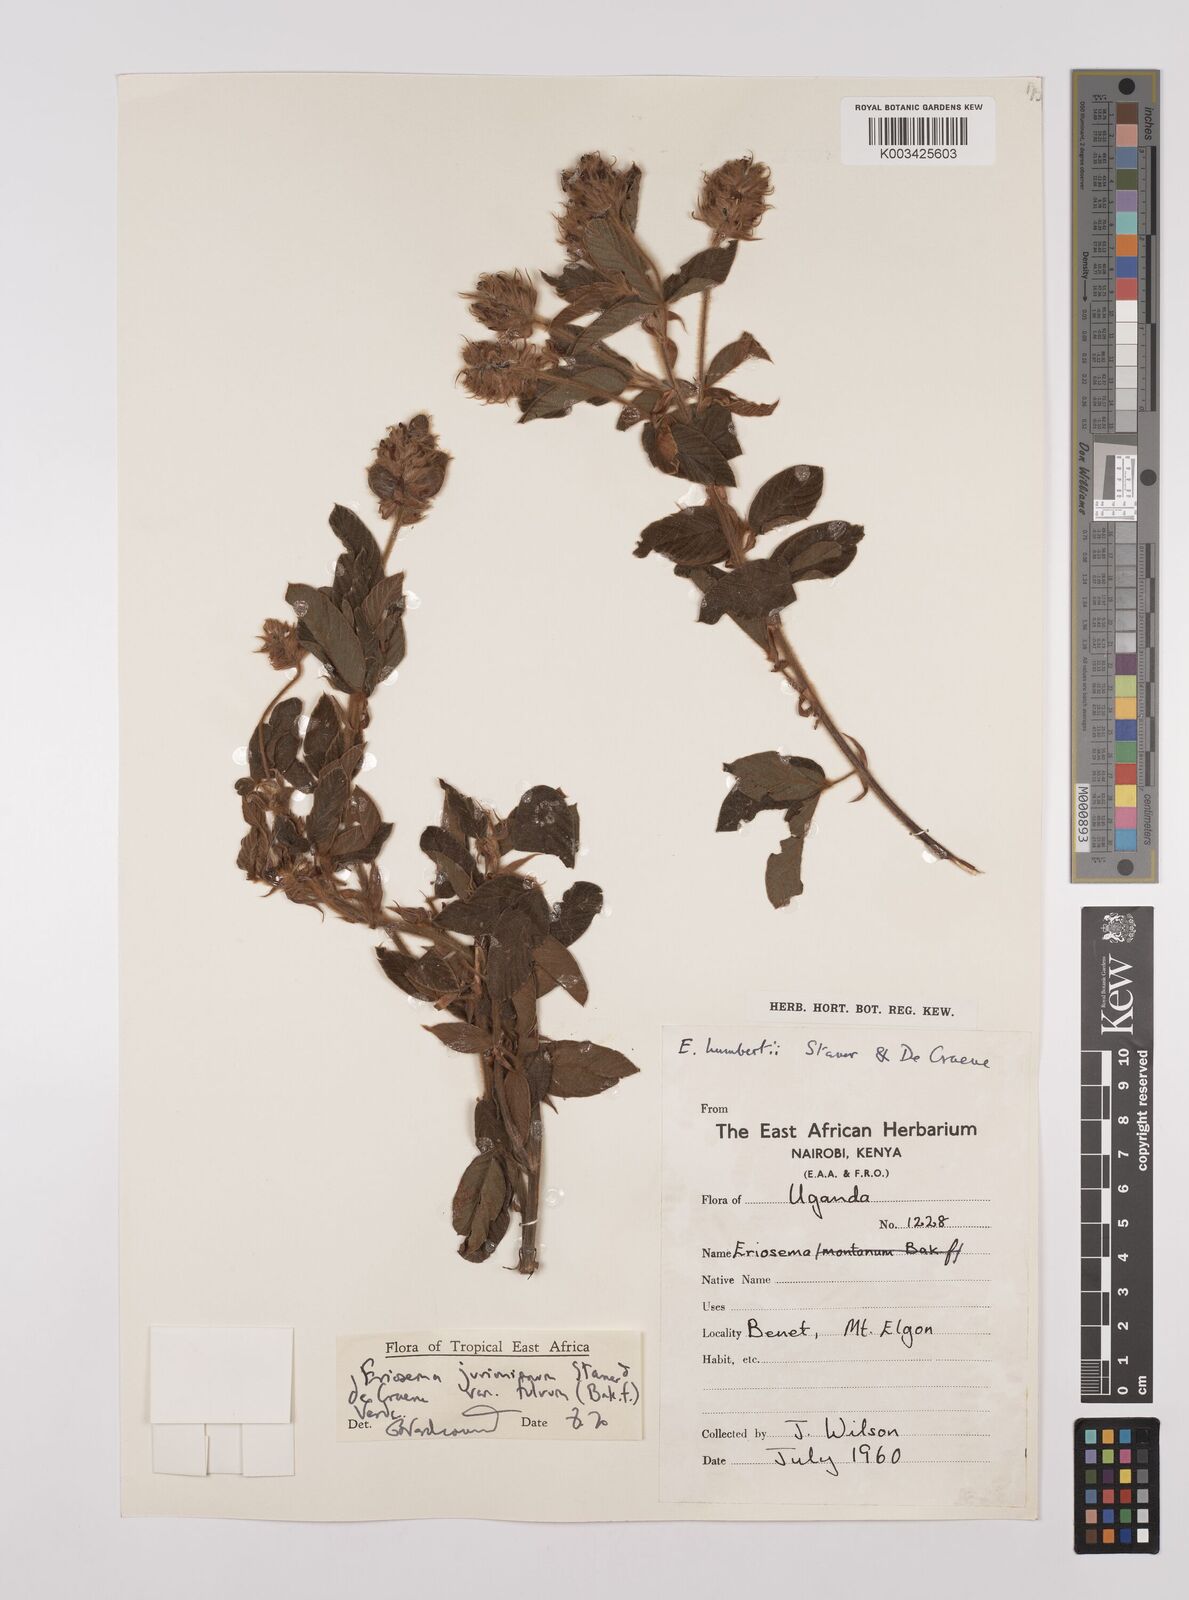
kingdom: Plantae
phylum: Tracheophyta
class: Magnoliopsida
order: Fabales
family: Fabaceae
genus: Eriosema
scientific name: Eriosema jurionianum
